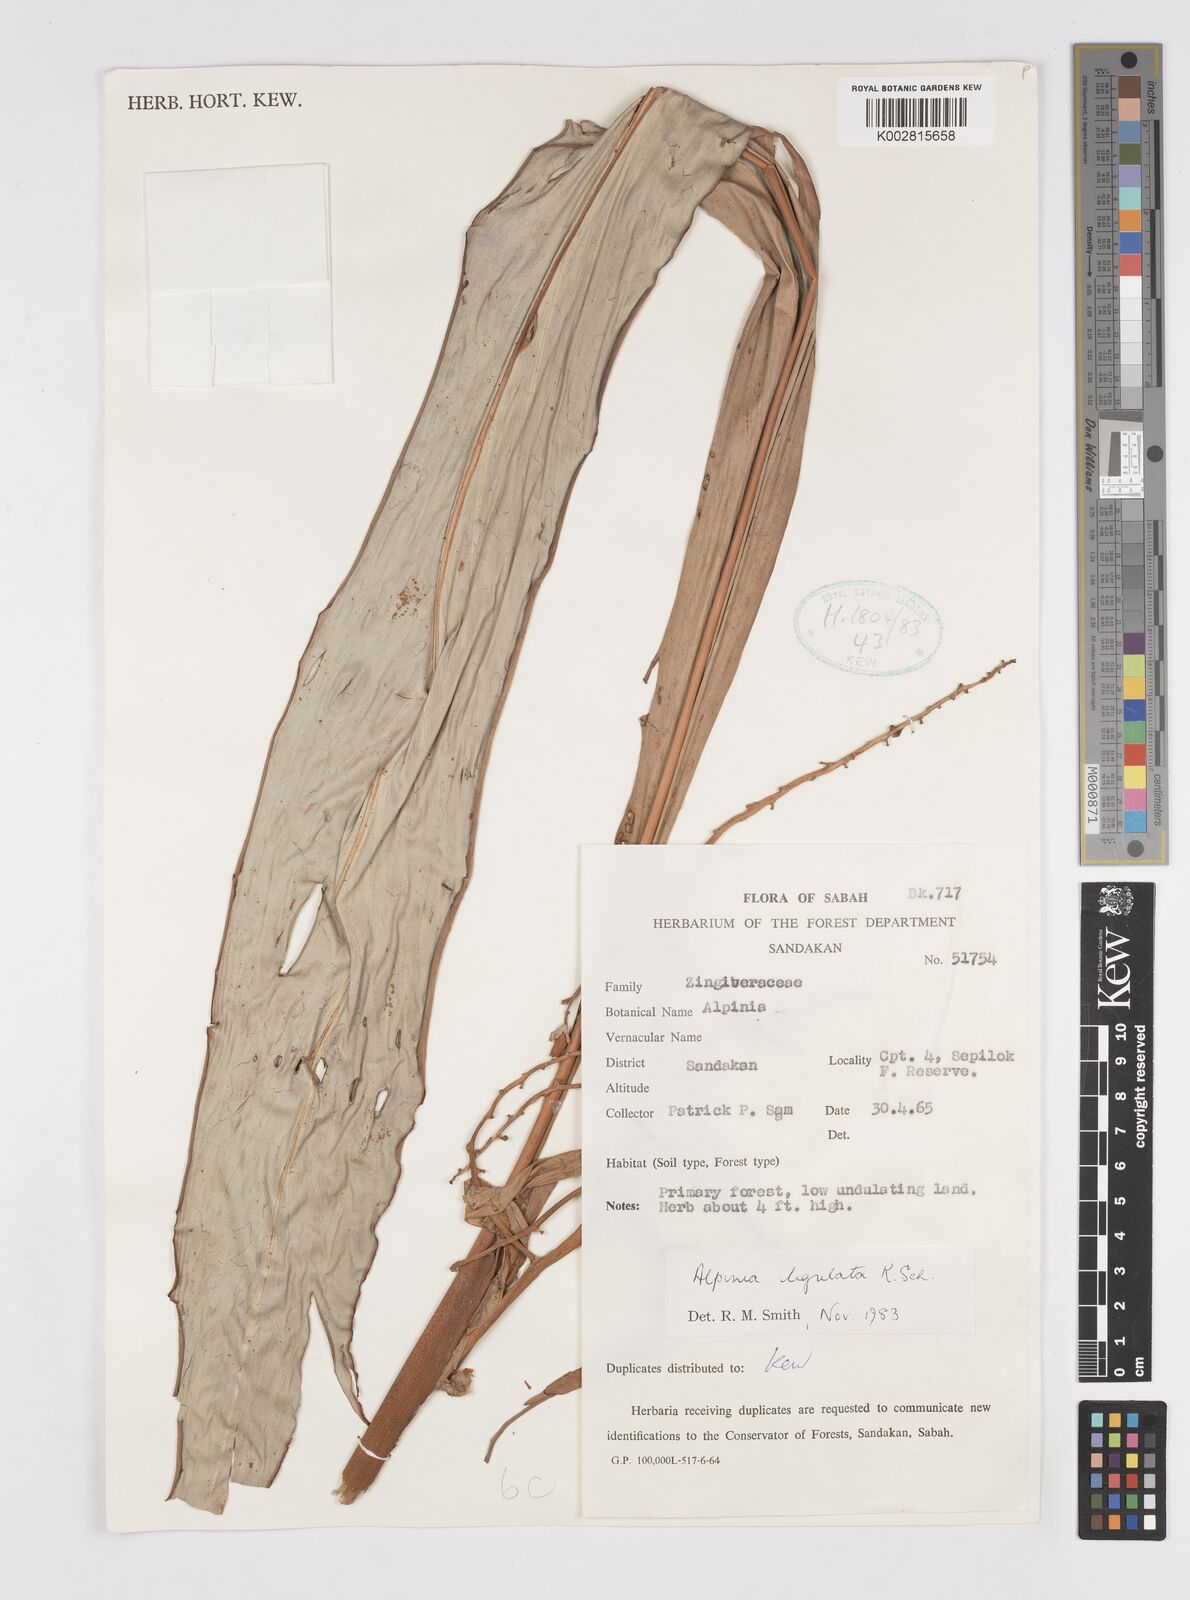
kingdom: Plantae
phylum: Tracheophyta
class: Liliopsida
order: Zingiberales
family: Zingiberaceae
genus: Alpinia
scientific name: Alpinia ligulata
